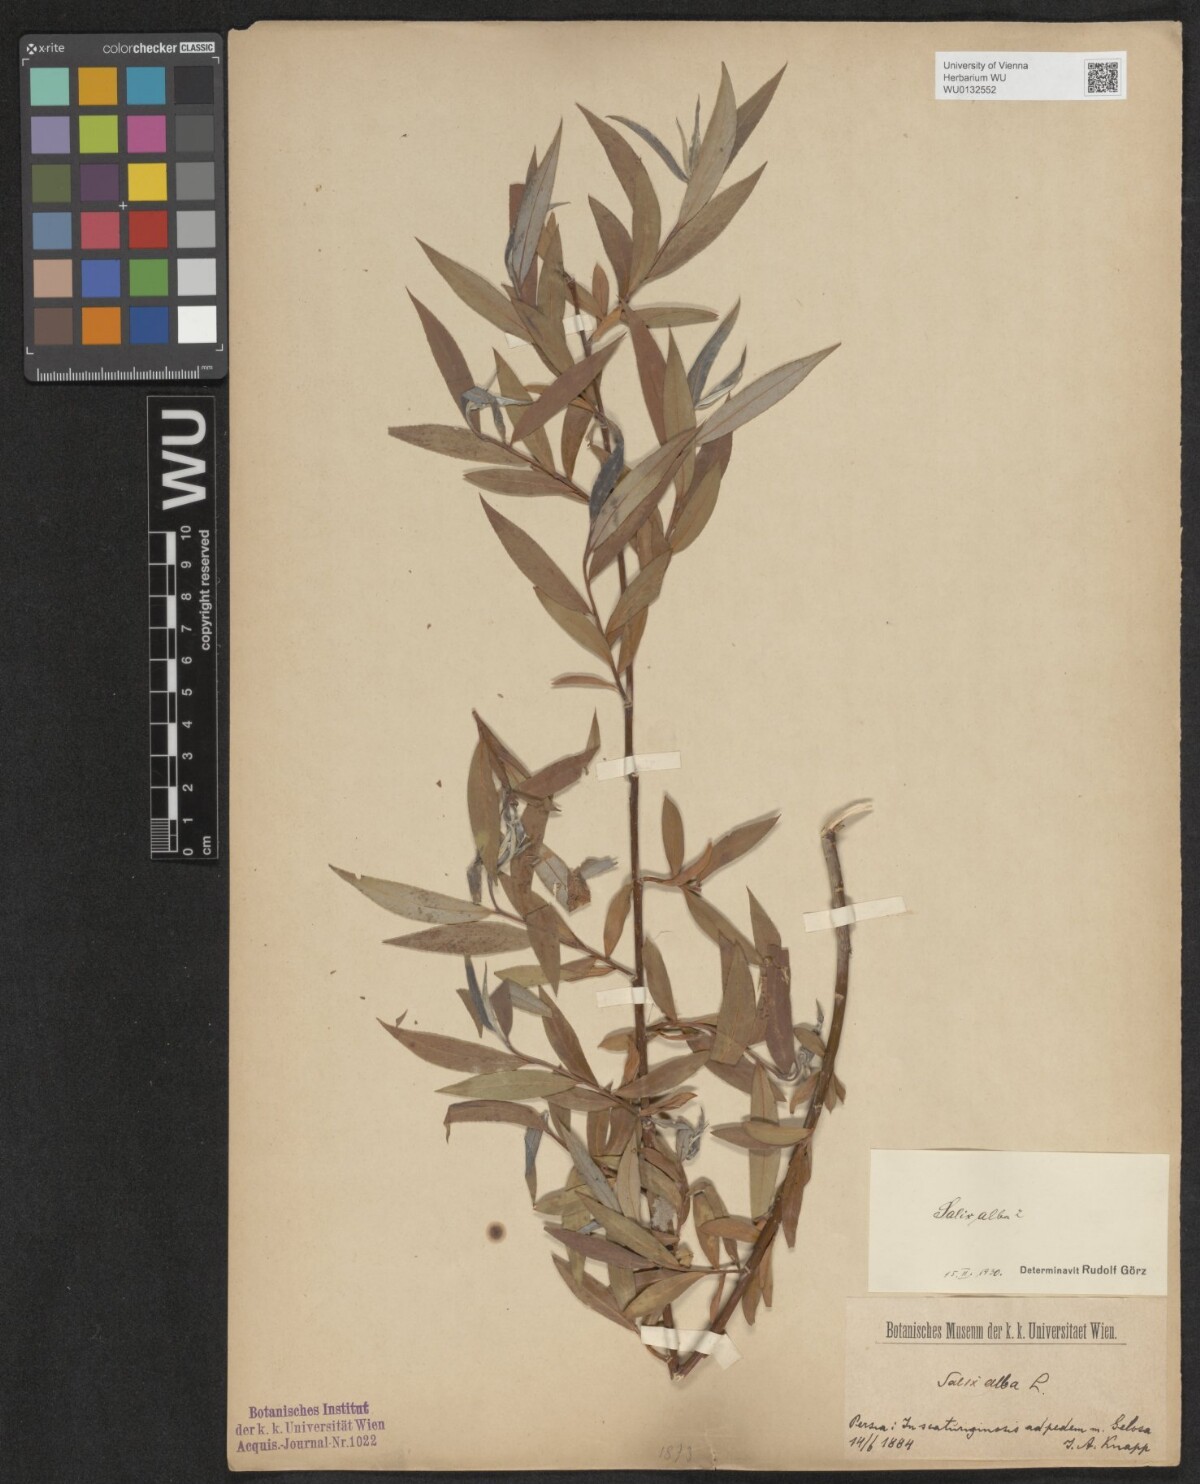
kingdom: Plantae
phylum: Tracheophyta
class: Magnoliopsida
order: Malpighiales
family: Salicaceae
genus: Salix
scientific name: Salix alba
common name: White willow
